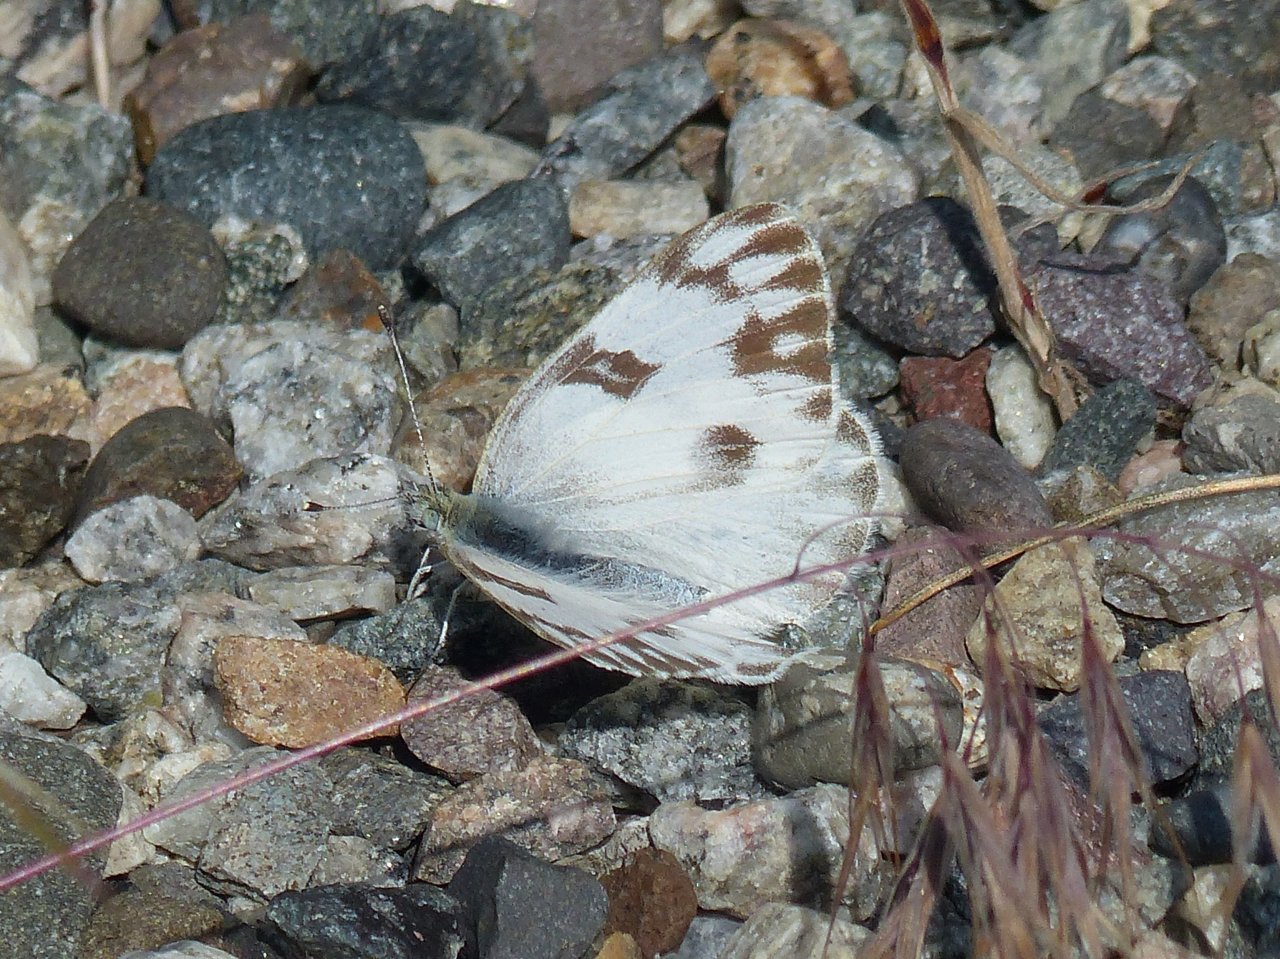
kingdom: Animalia
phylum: Arthropoda
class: Insecta
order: Lepidoptera
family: Pieridae
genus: Pontia
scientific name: Pontia occidentalis
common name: Western White
